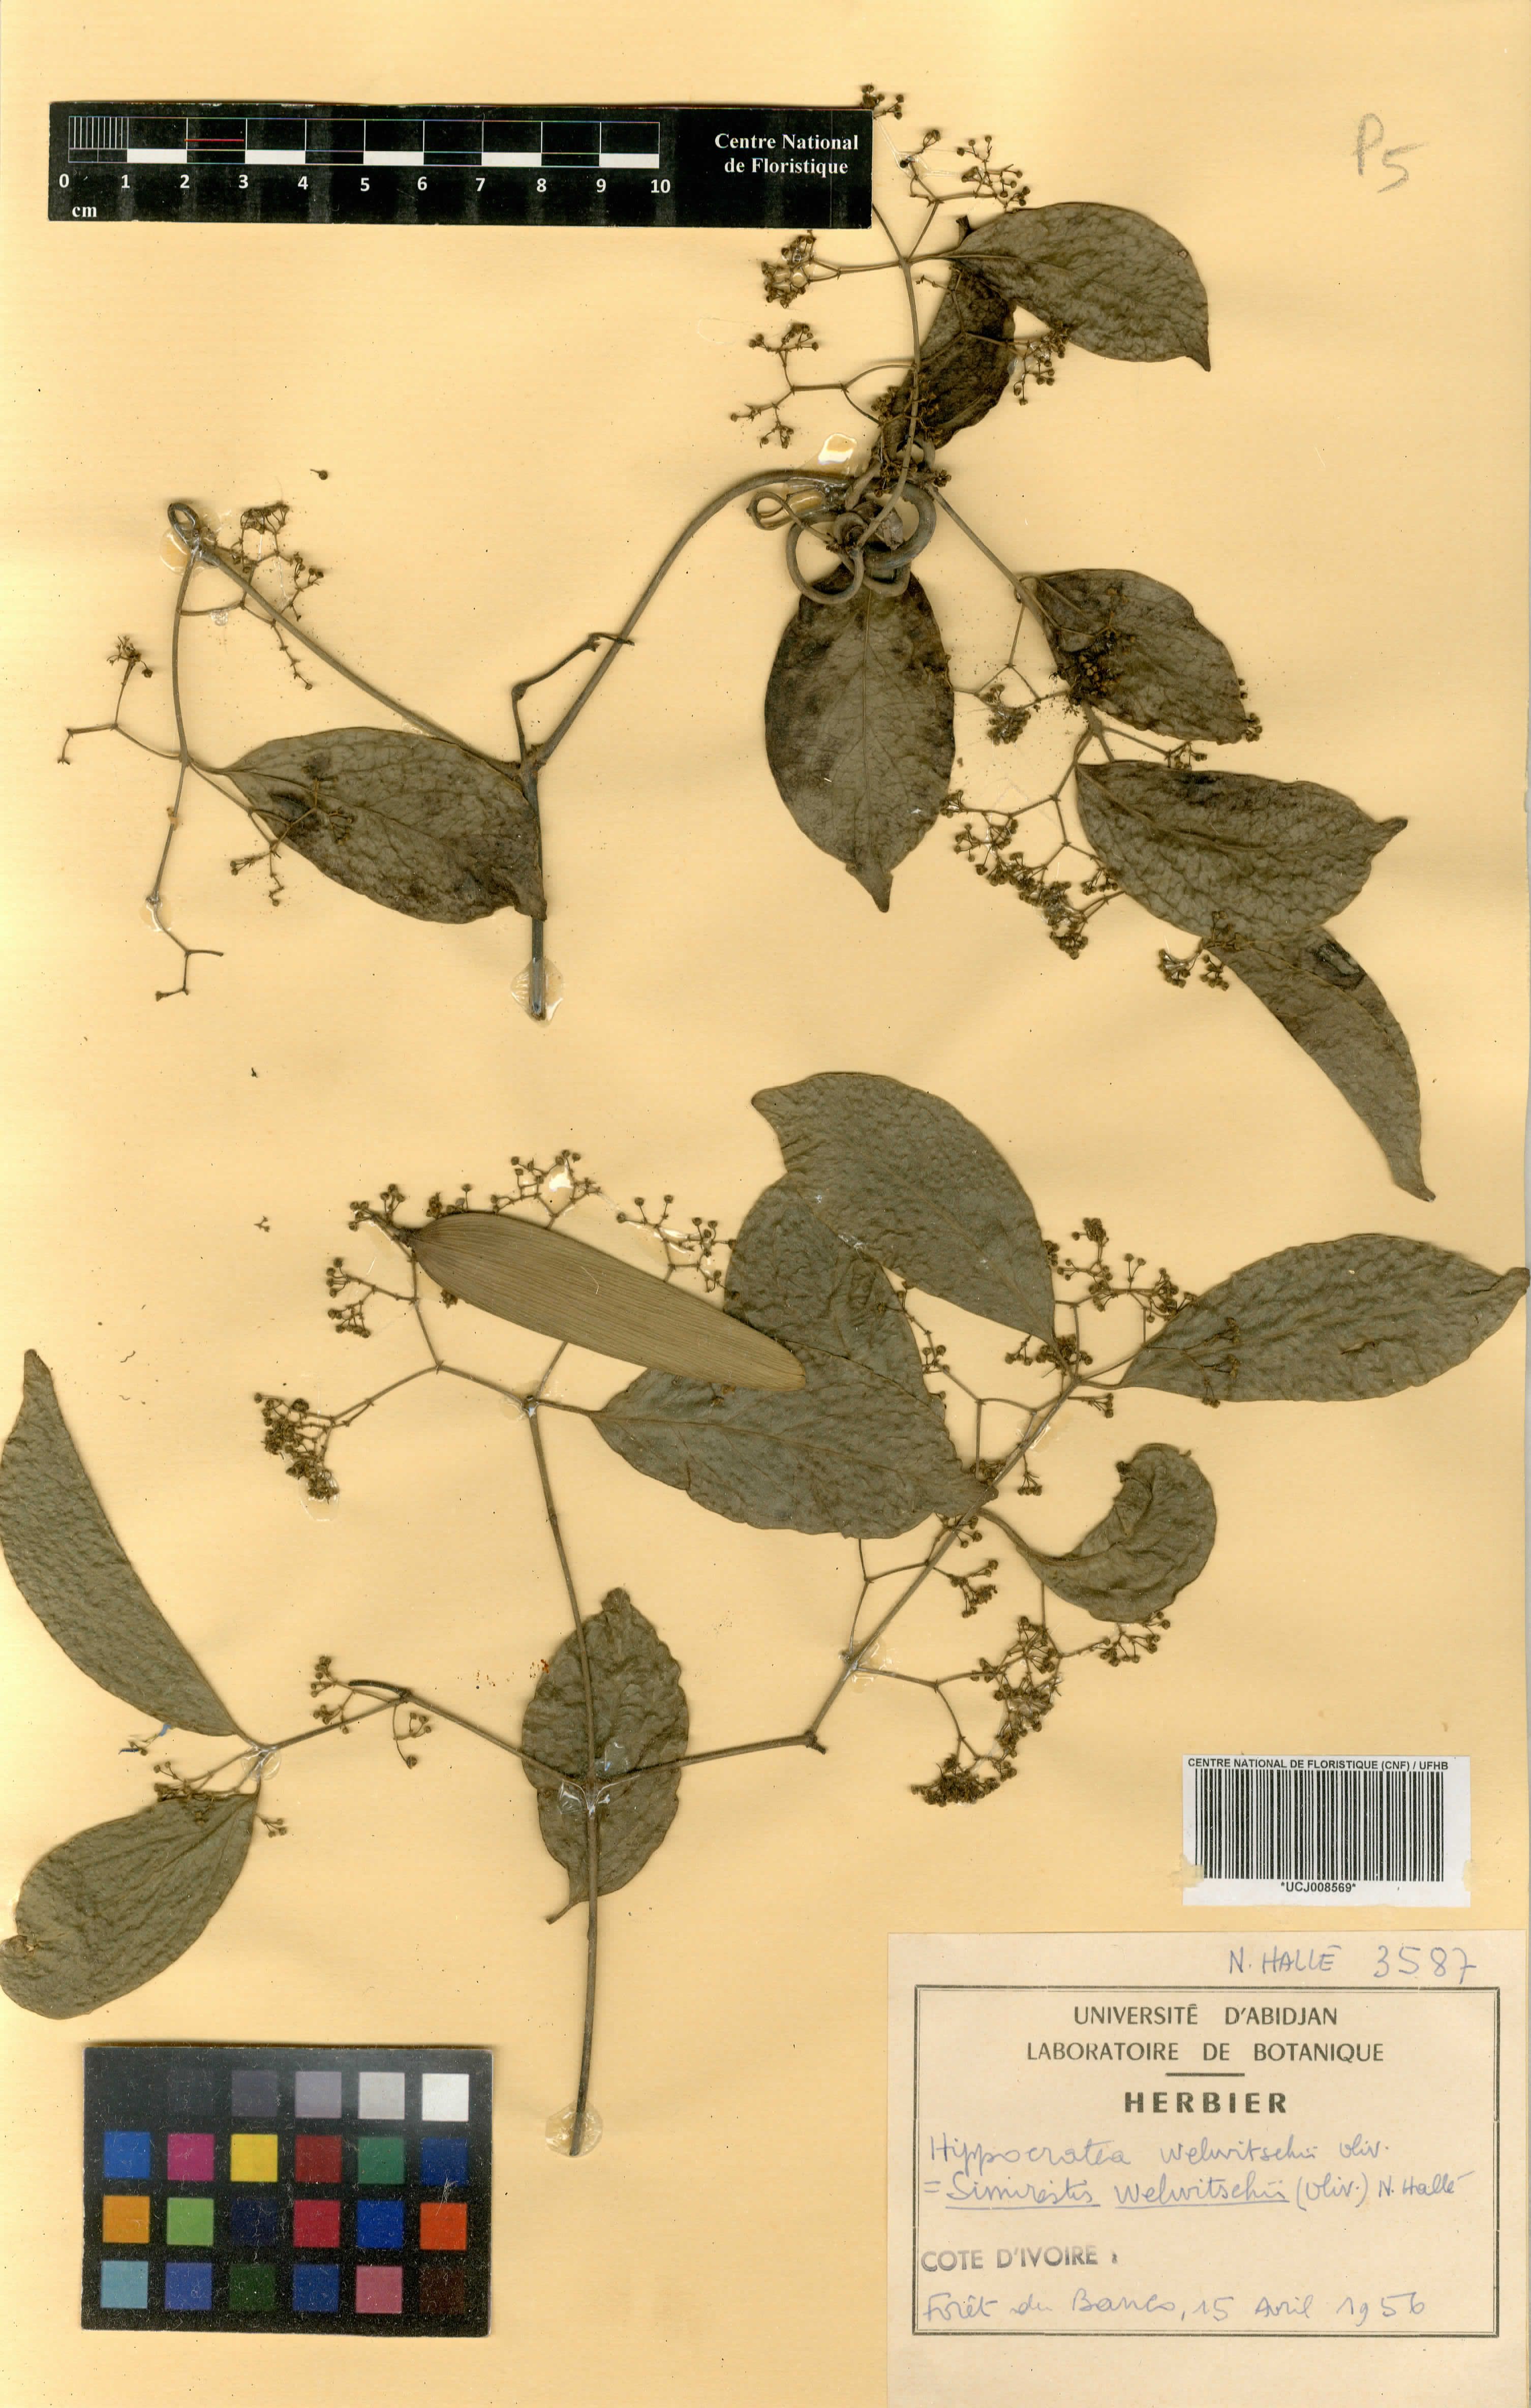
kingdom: Plantae
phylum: Tracheophyta
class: Magnoliopsida
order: Celastrales
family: Celastraceae
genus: Simicratea
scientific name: Simicratea welwitschii
